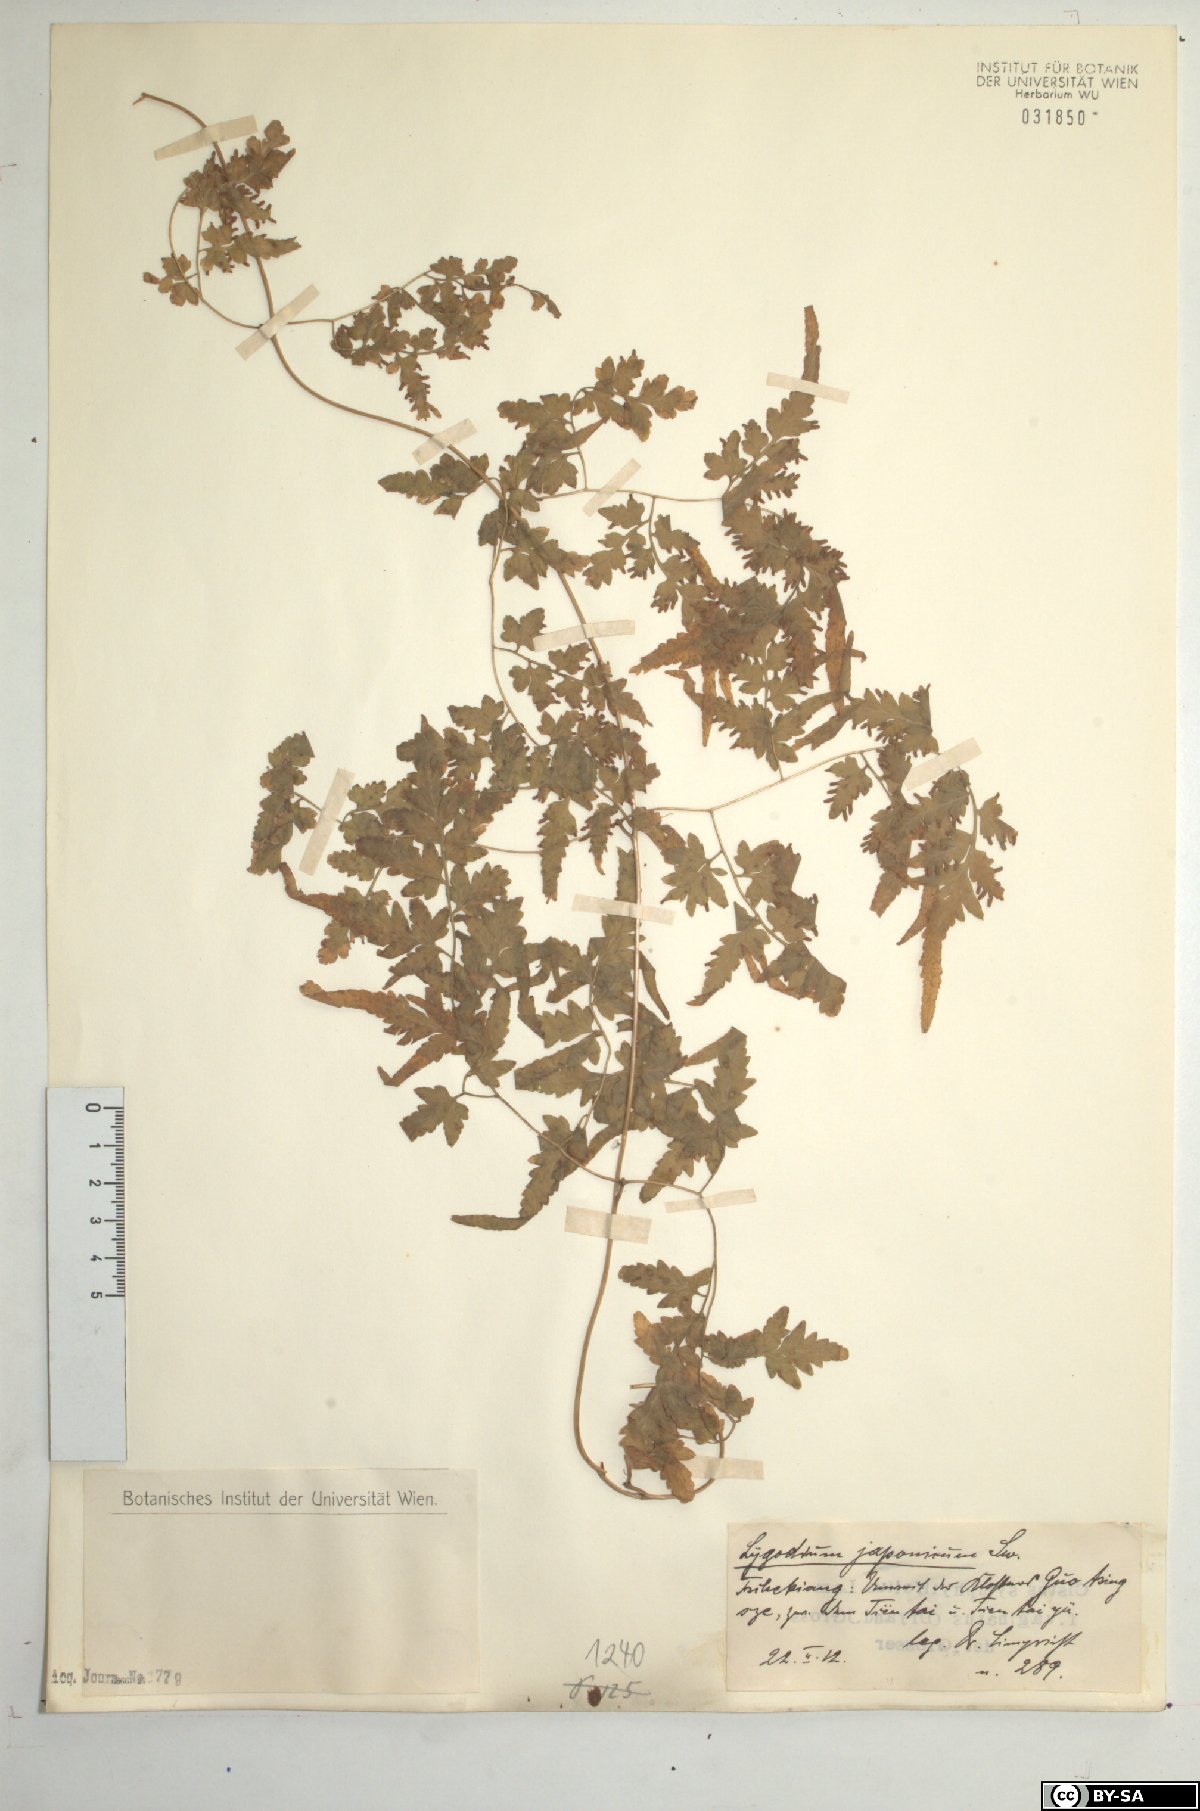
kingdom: Plantae
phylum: Tracheophyta
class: Polypodiopsida
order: Schizaeales
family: Lygodiaceae
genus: Lygodium
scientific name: Lygodium japonicum
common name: Japanese climbing fern
